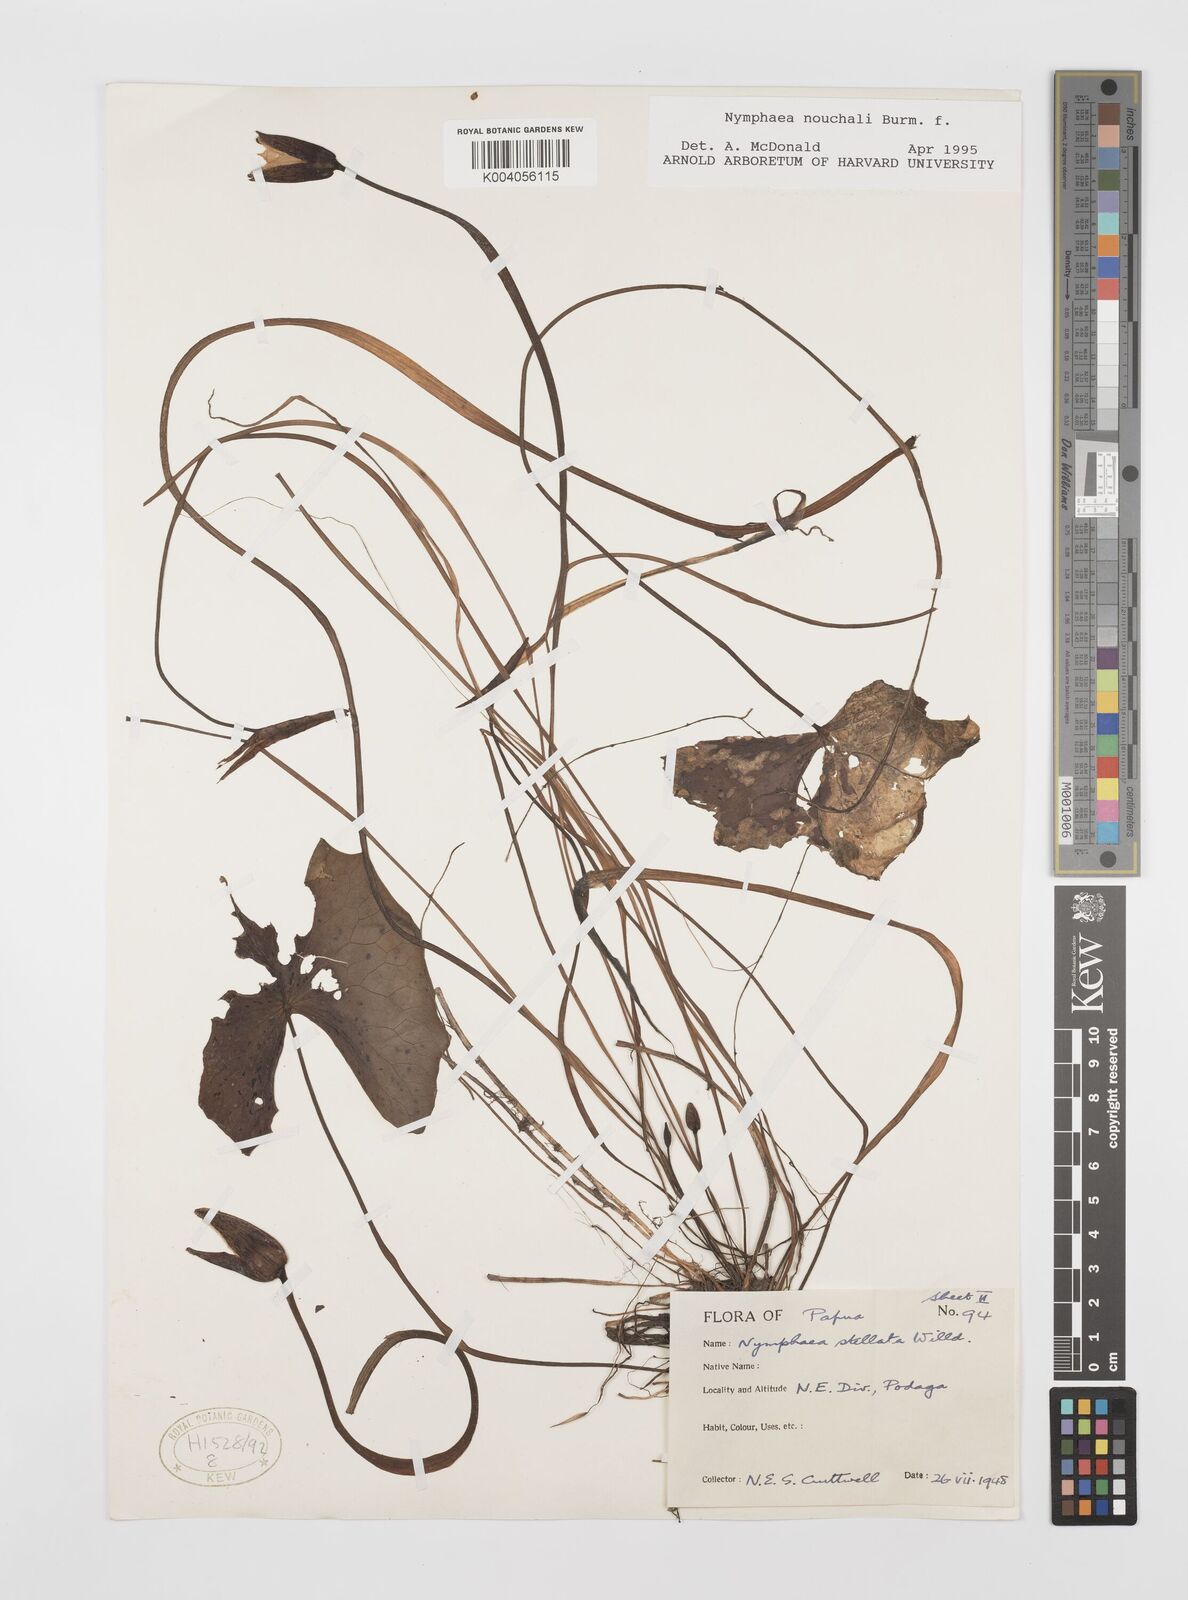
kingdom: Plantae
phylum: Tracheophyta
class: Magnoliopsida
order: Nymphaeales
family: Nymphaeaceae
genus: Nymphaea
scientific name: Nymphaea nouchali
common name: Blue lotus
